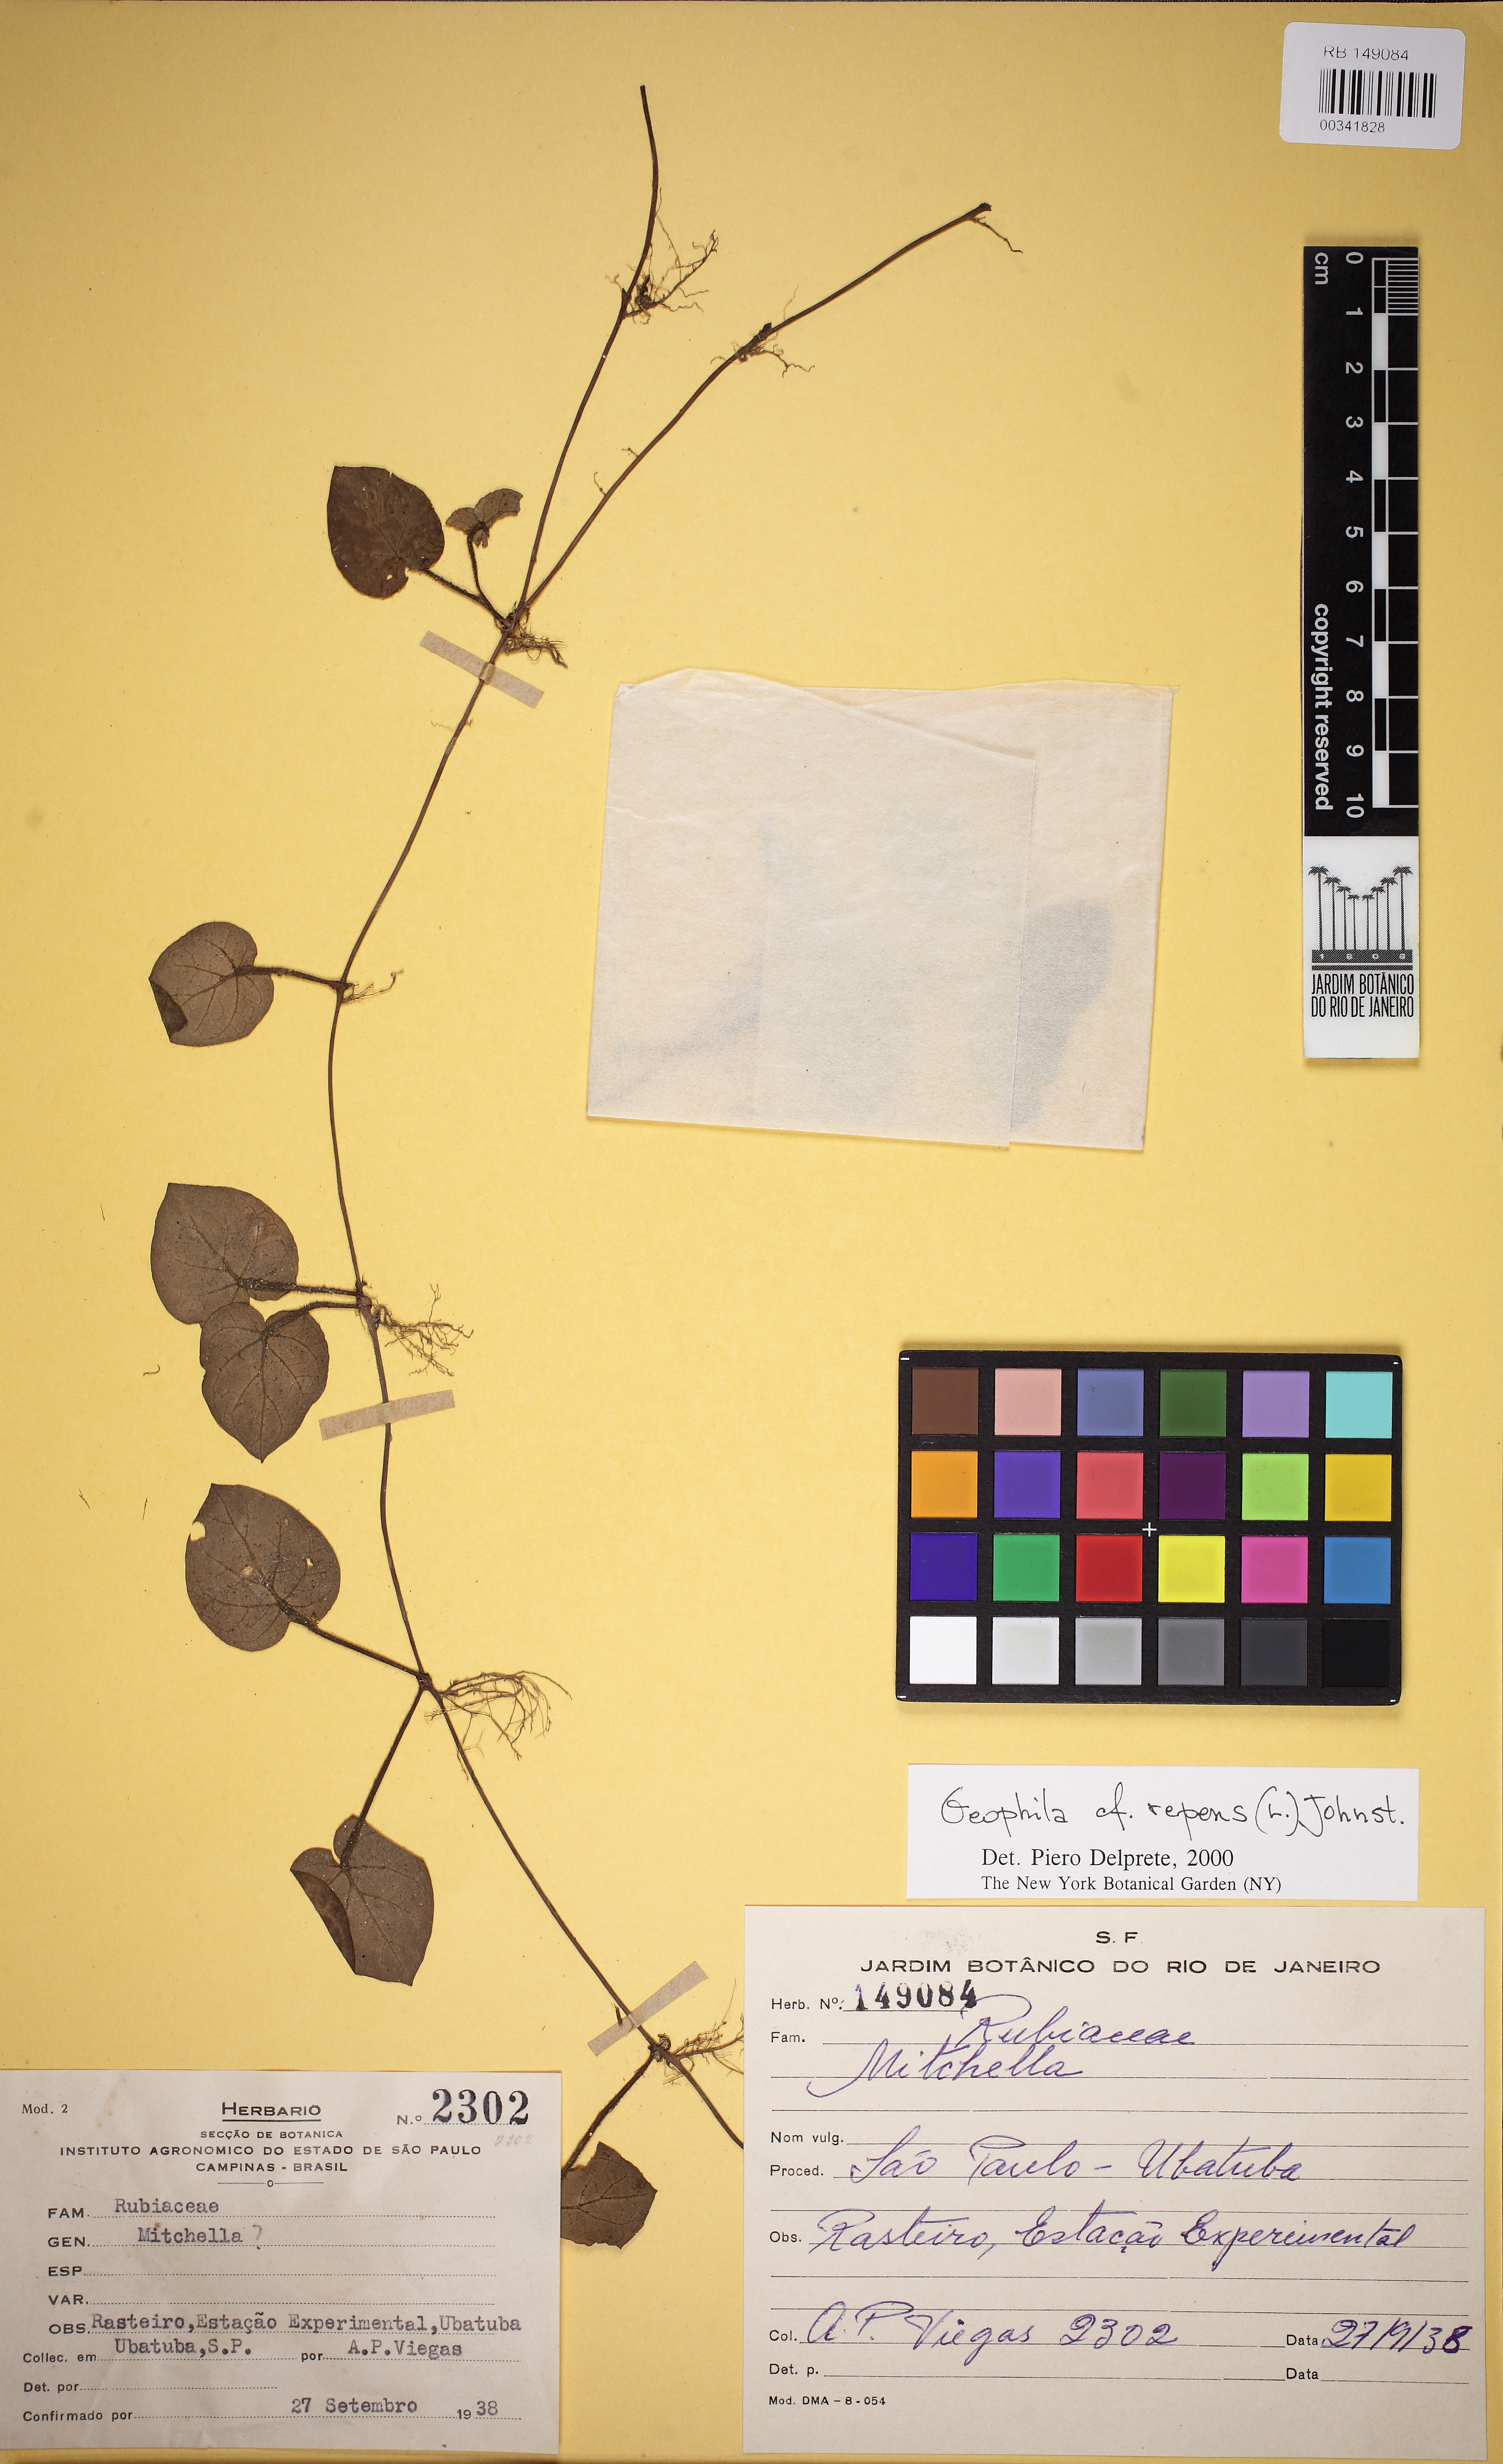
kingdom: Plantae
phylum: Tracheophyta
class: Magnoliopsida
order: Gentianales
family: Rubiaceae
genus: Geophila
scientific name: Geophila repens
